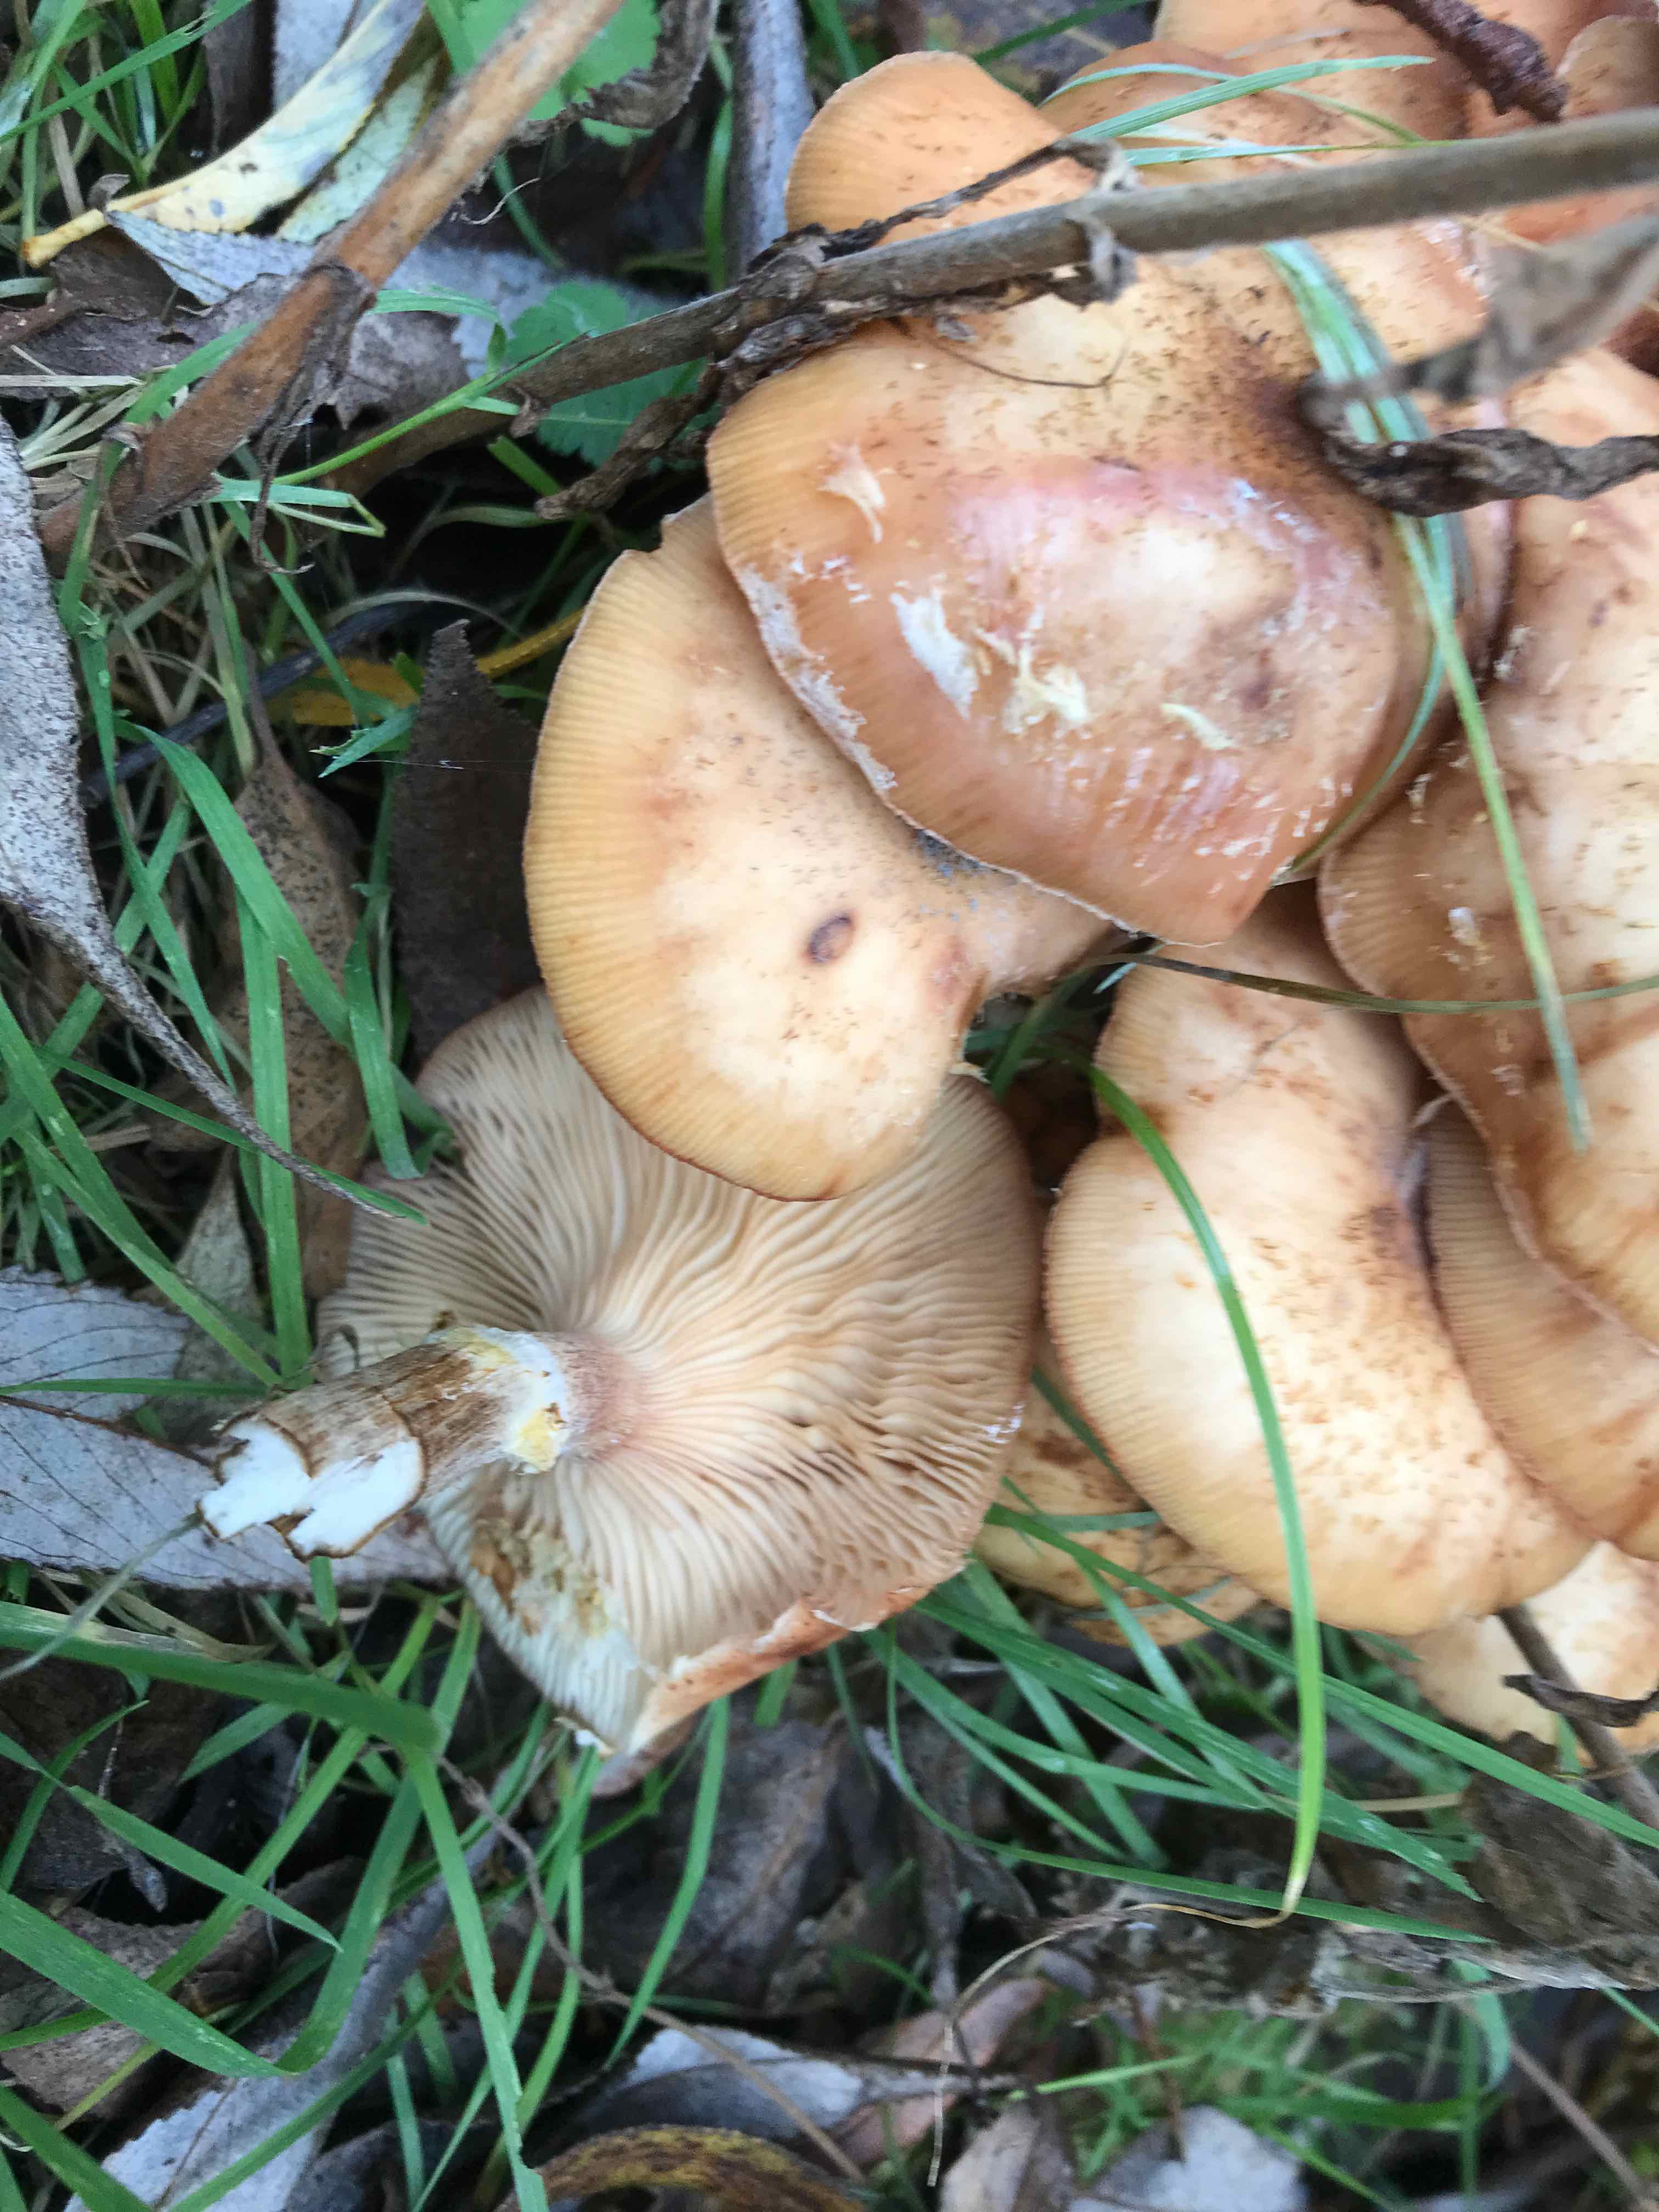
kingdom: Fungi
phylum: Basidiomycota
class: Agaricomycetes
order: Agaricales
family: Physalacriaceae
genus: Armillaria
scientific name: Armillaria lutea
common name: køllestokket honningsvamp
